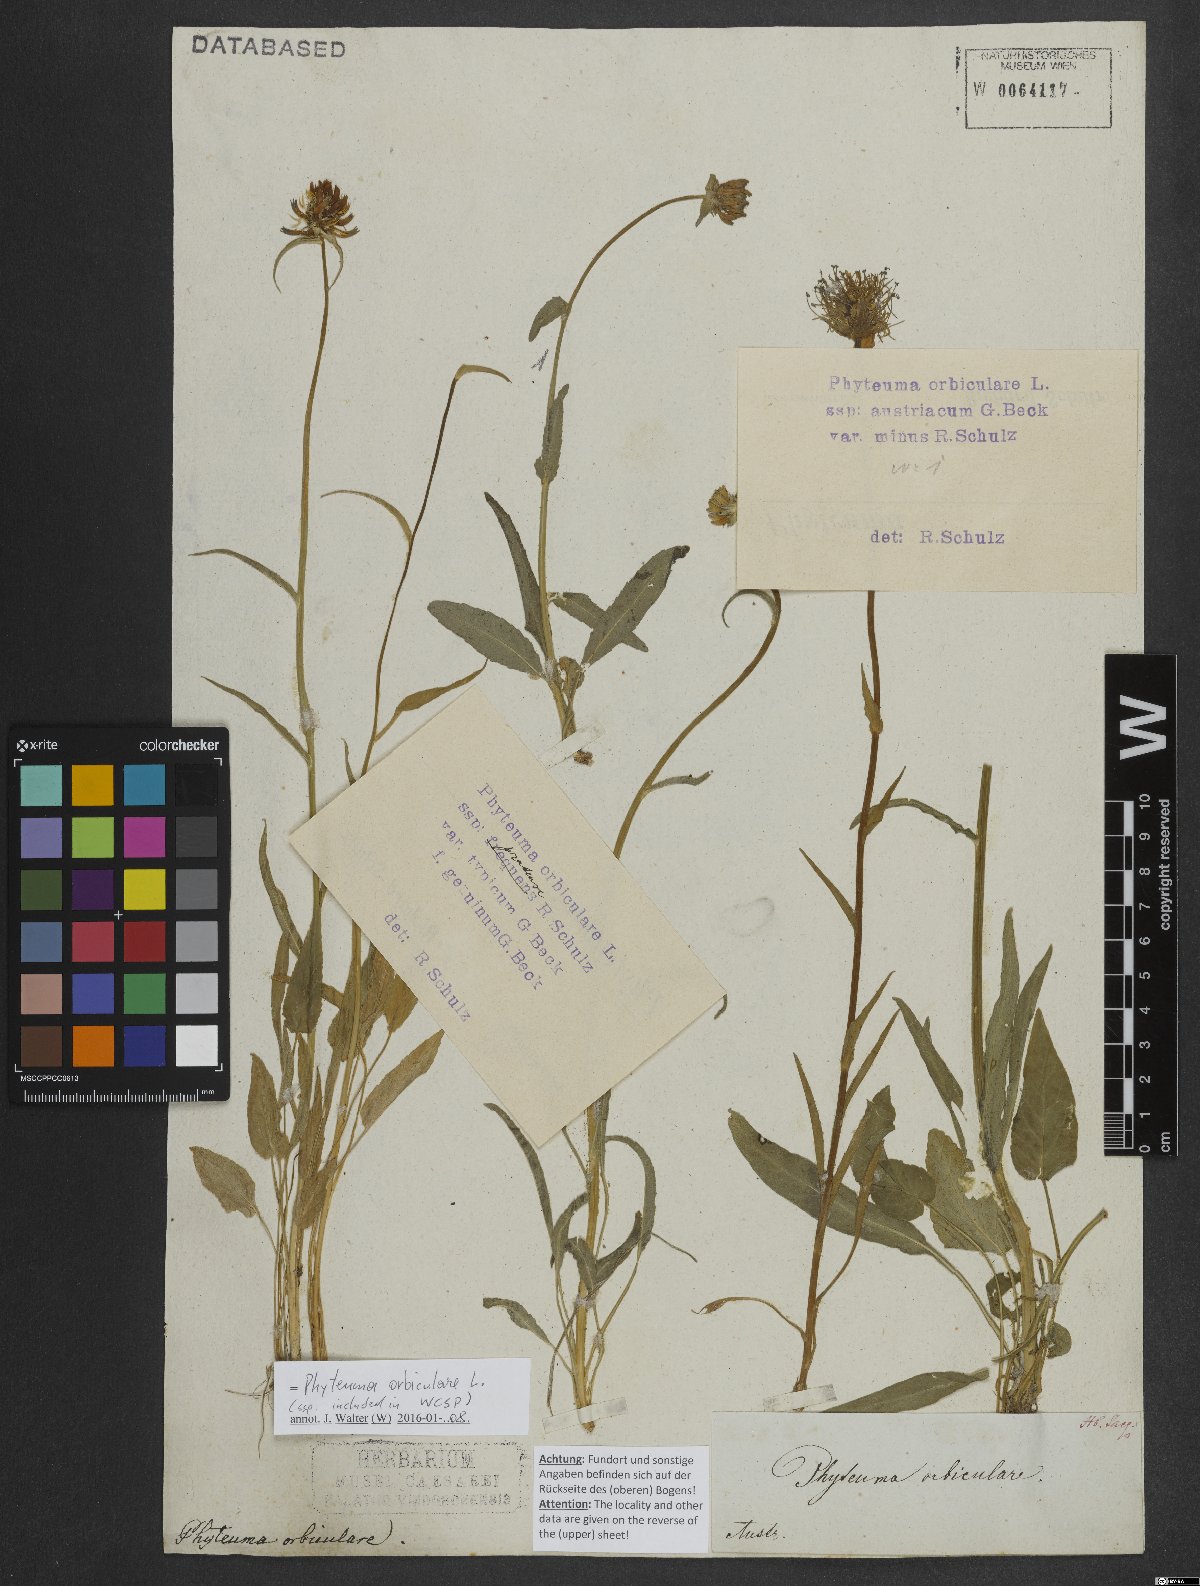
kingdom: Plantae
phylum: Tracheophyta
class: Magnoliopsida
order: Asterales
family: Campanulaceae
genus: Phyteuma
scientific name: Phyteuma orbiculare
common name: Round-headed rampion
